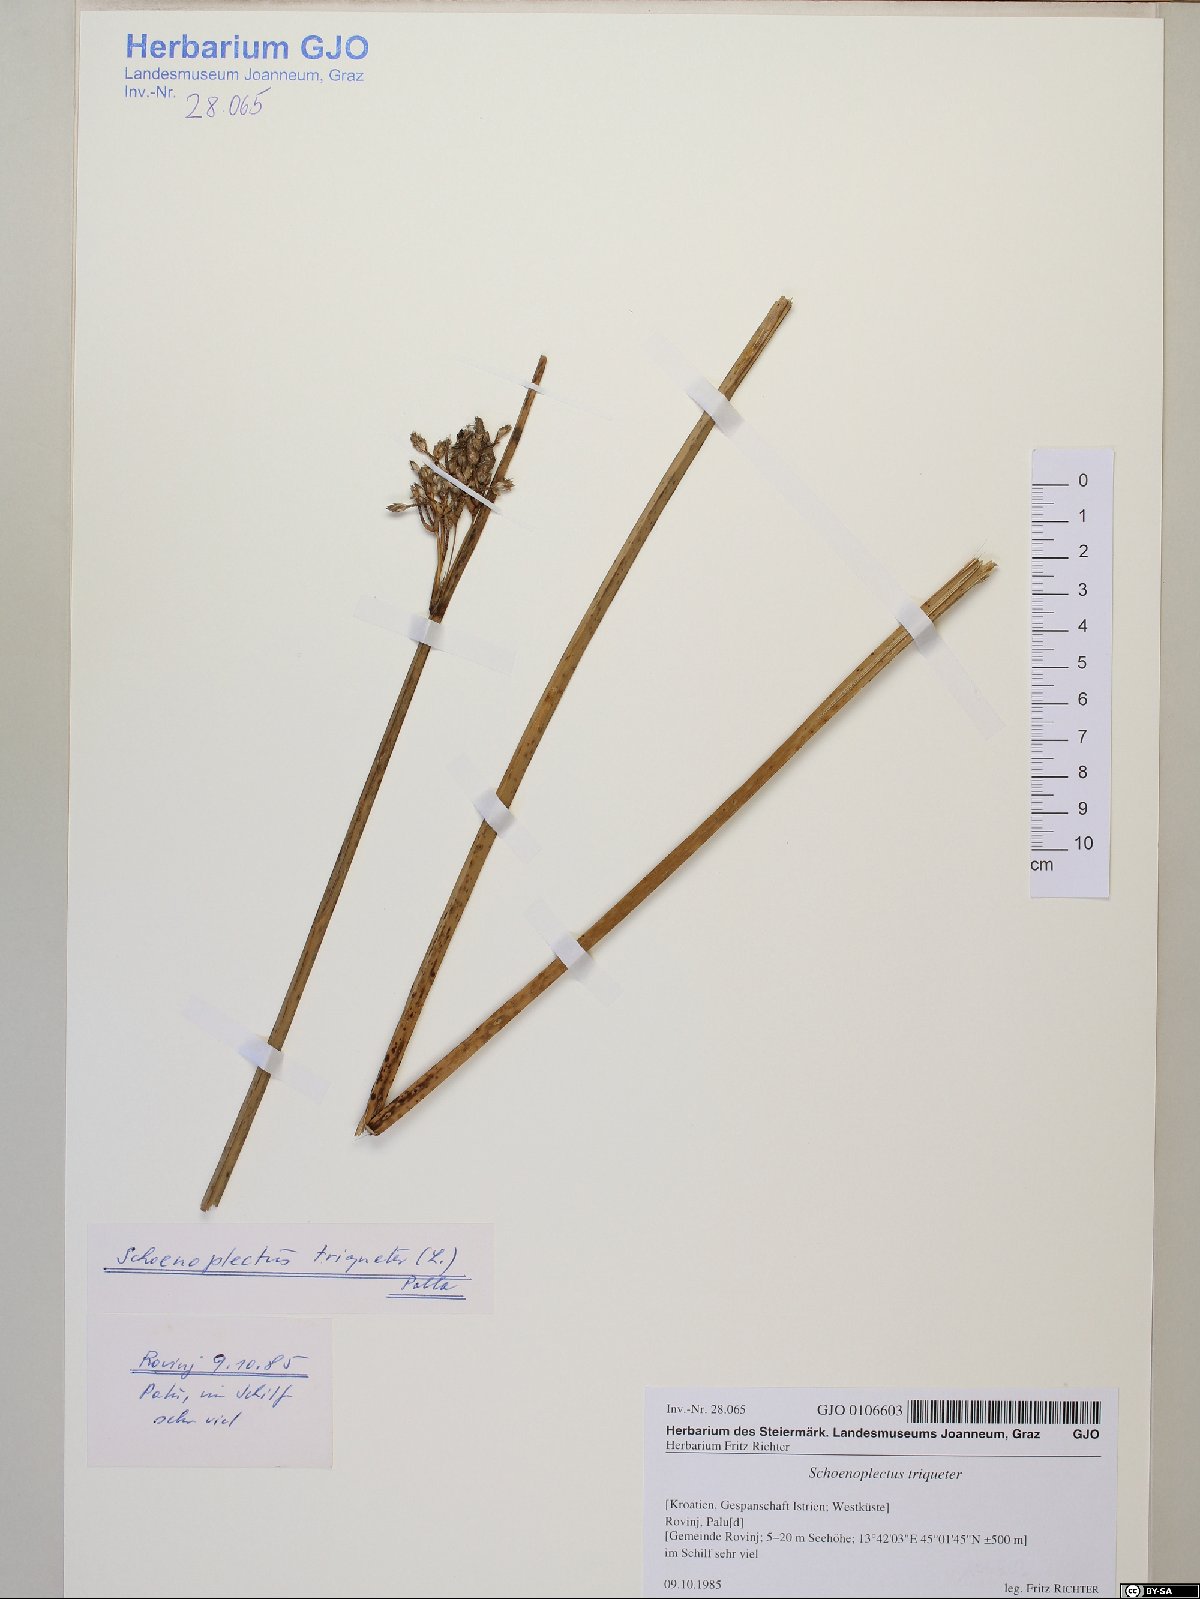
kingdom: Plantae
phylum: Tracheophyta
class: Liliopsida
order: Poales
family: Cyperaceae
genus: Schoenoplectus
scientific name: Schoenoplectus triqueter
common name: Triangular club-rush
